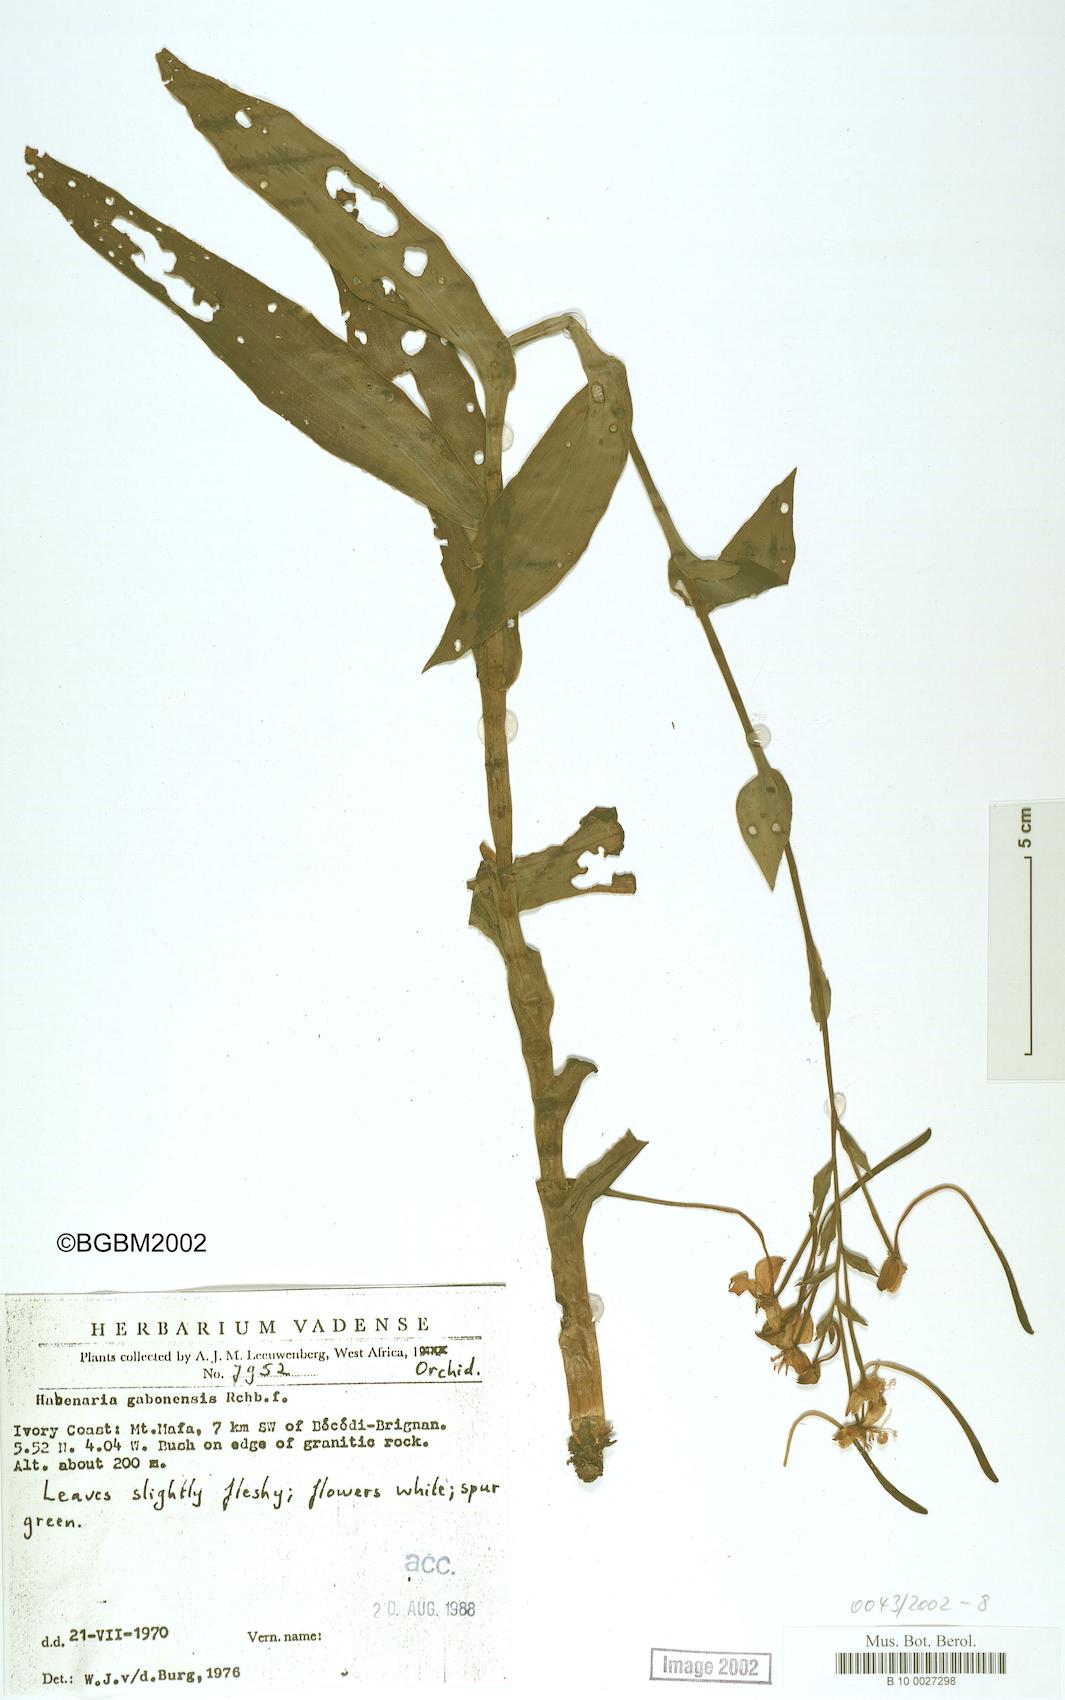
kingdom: Plantae
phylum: Tracheophyta
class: Liliopsida
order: Asparagales
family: Orchidaceae
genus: Habenaria
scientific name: Habenaria procera
